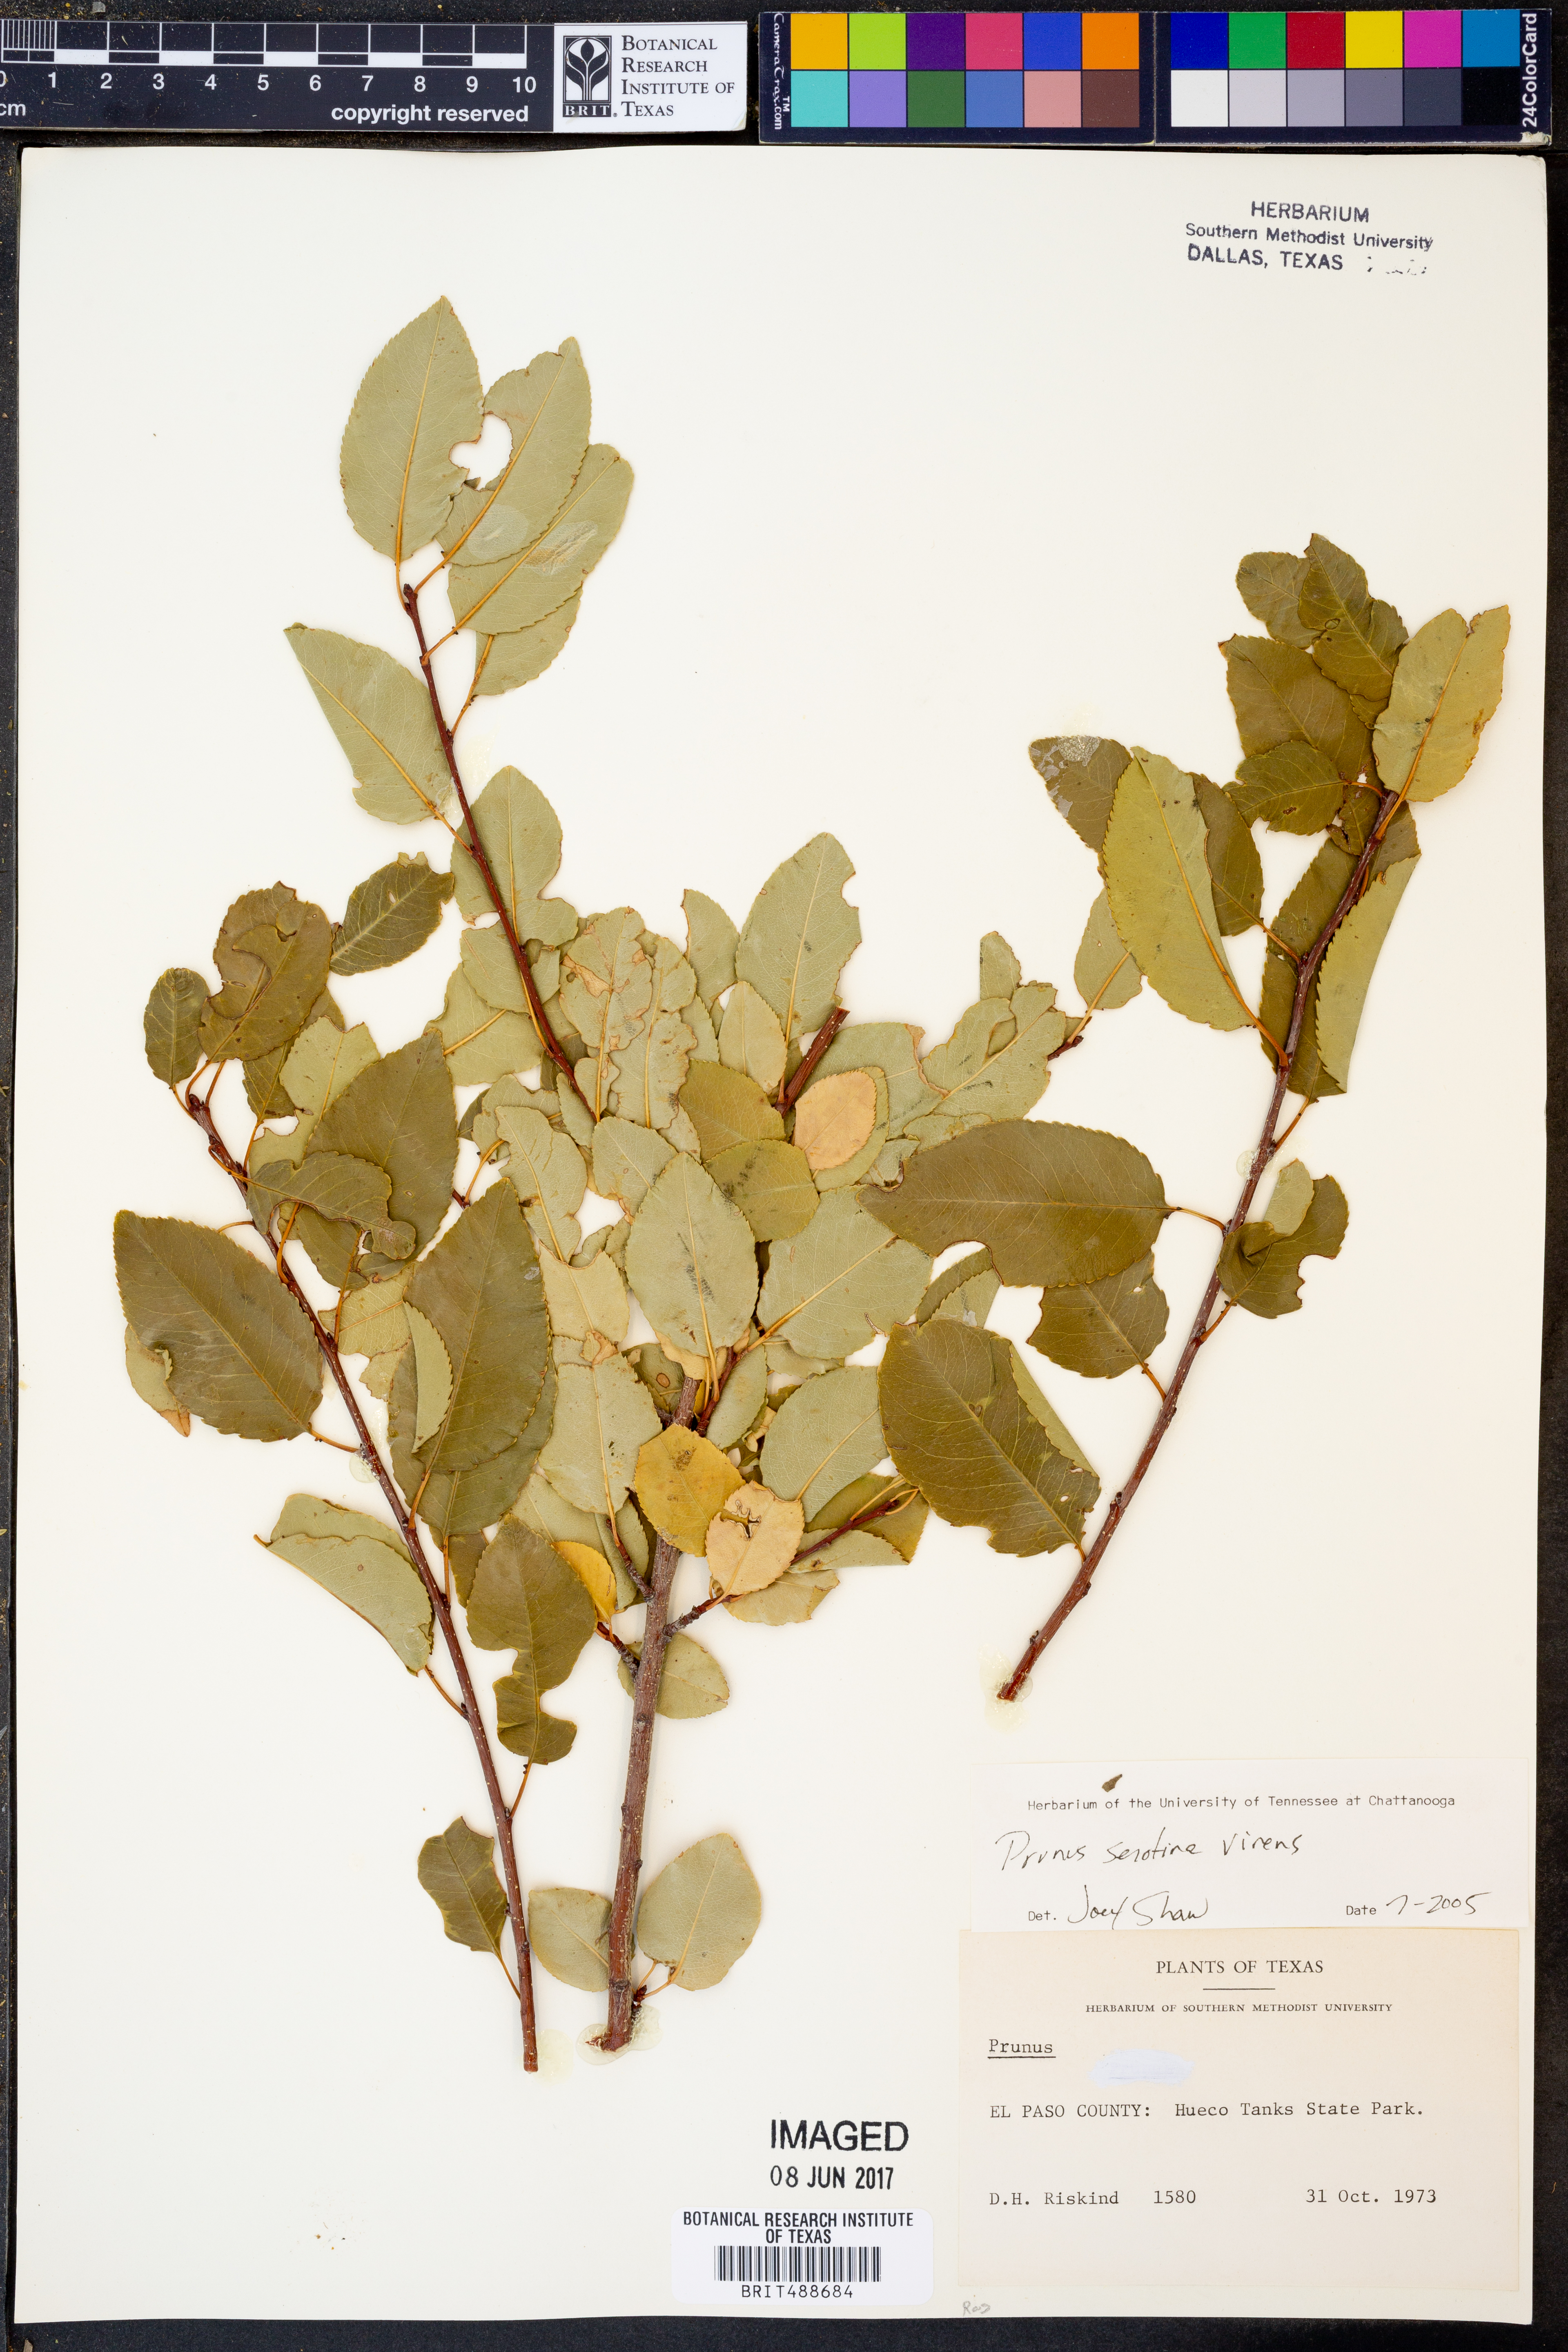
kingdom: Plantae
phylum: Tracheophyta
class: Magnoliopsida
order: Rosales
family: Rosaceae
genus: Prunus
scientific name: Prunus serotina
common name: Black cherry
